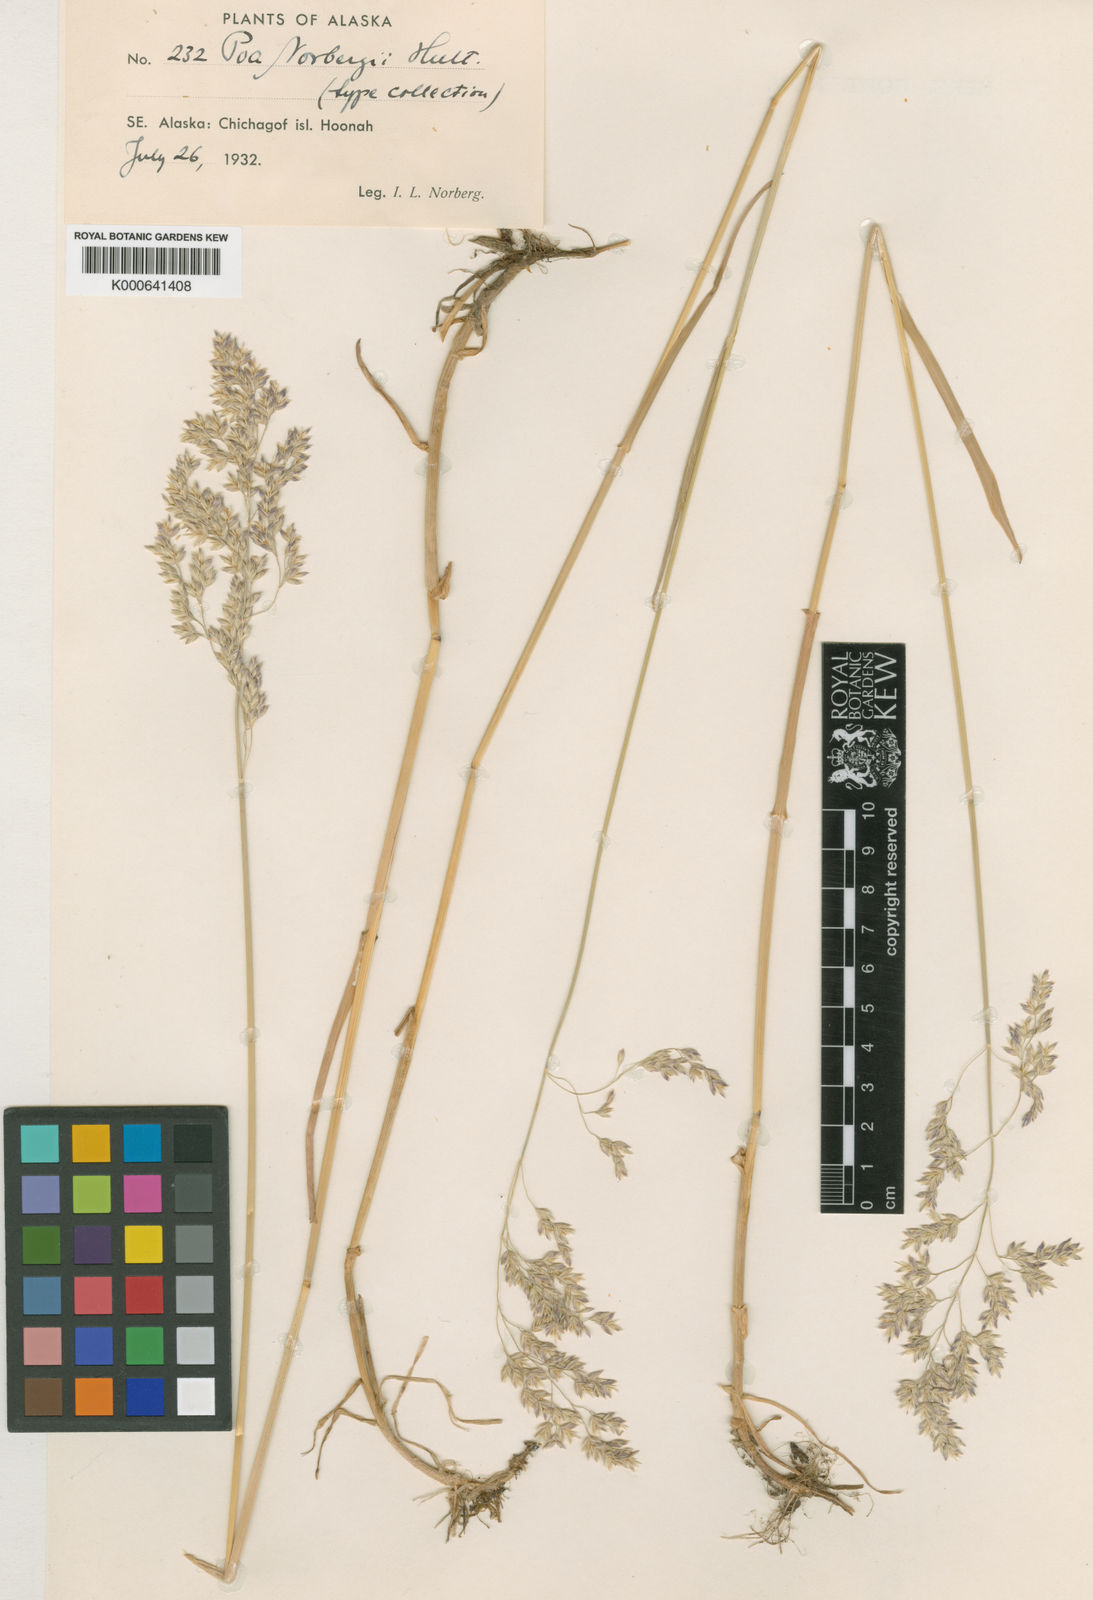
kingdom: Plantae
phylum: Tracheophyta
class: Liliopsida
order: Poales
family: Poaceae
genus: Poa
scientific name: Poa
